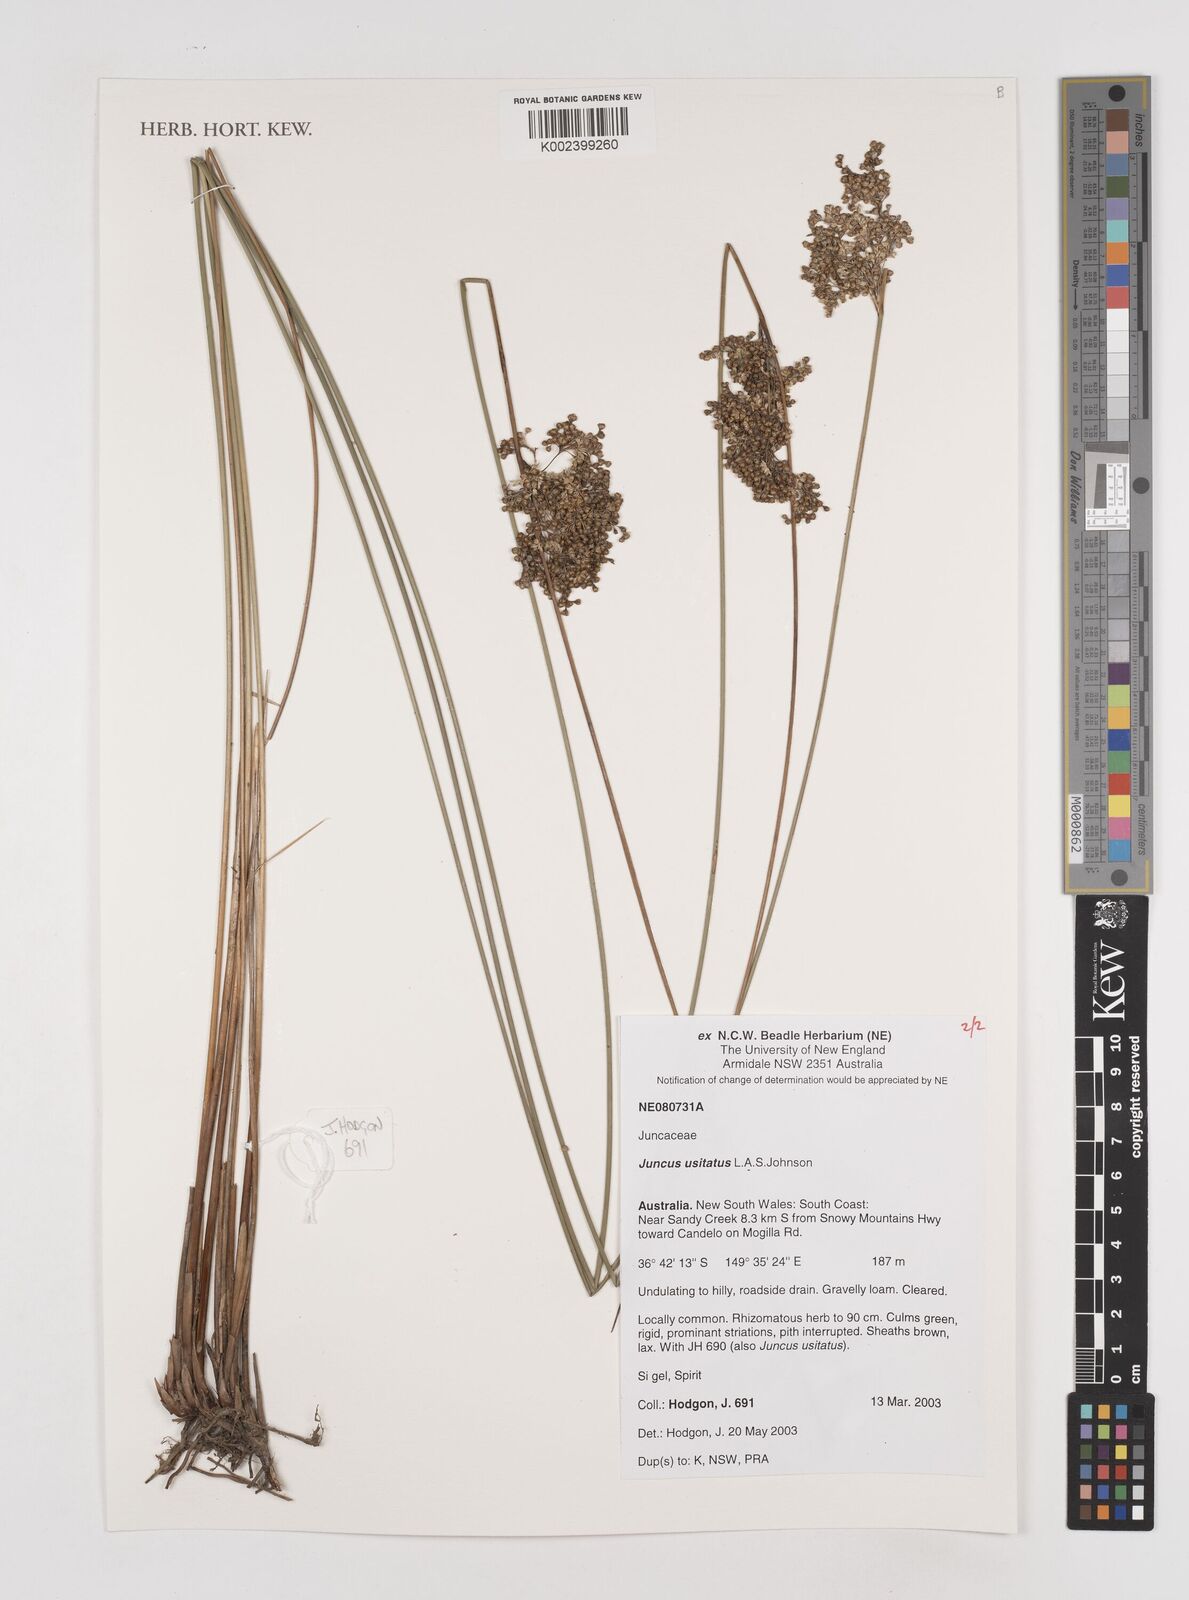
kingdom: Plantae
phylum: Tracheophyta
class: Liliopsida
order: Poales
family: Juncaceae
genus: Juncus
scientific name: Juncus usitatus
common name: Rush
